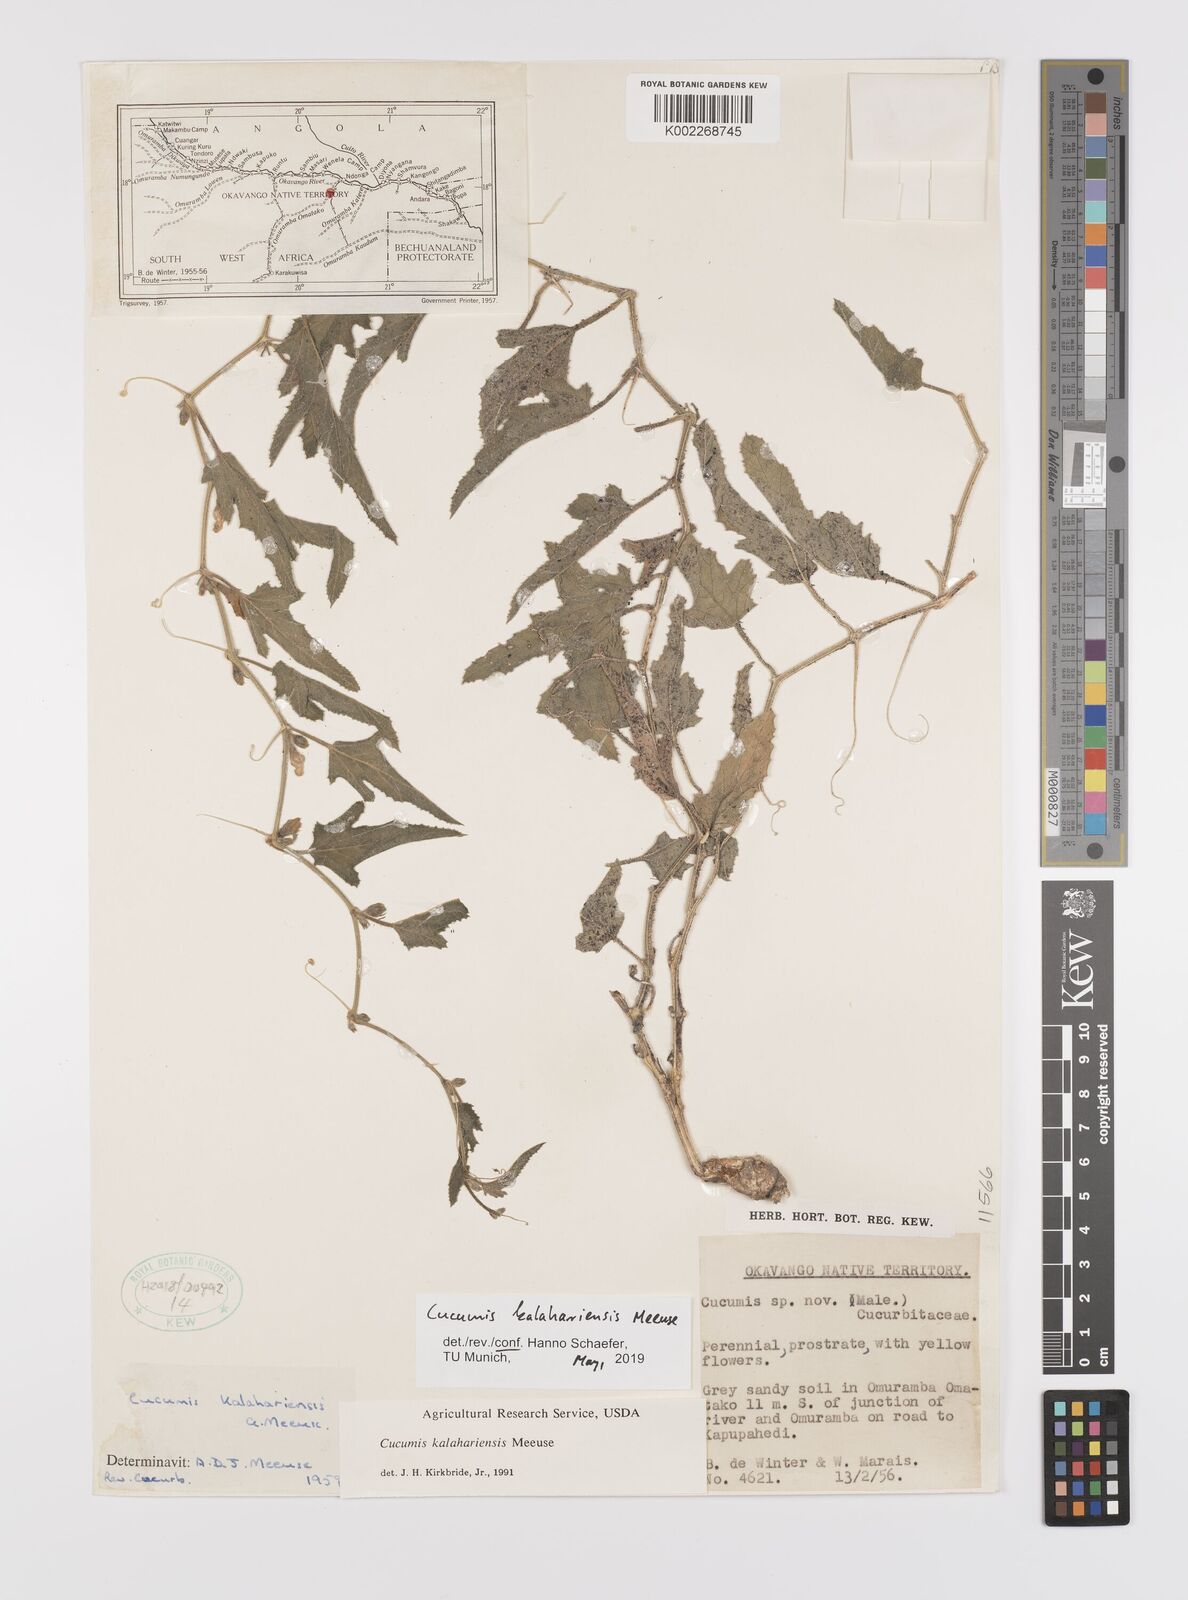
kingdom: Plantae
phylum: Tracheophyta
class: Magnoliopsida
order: Cucurbitales
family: Cucurbitaceae
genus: Cucumis
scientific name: Cucumis kalahariensis
